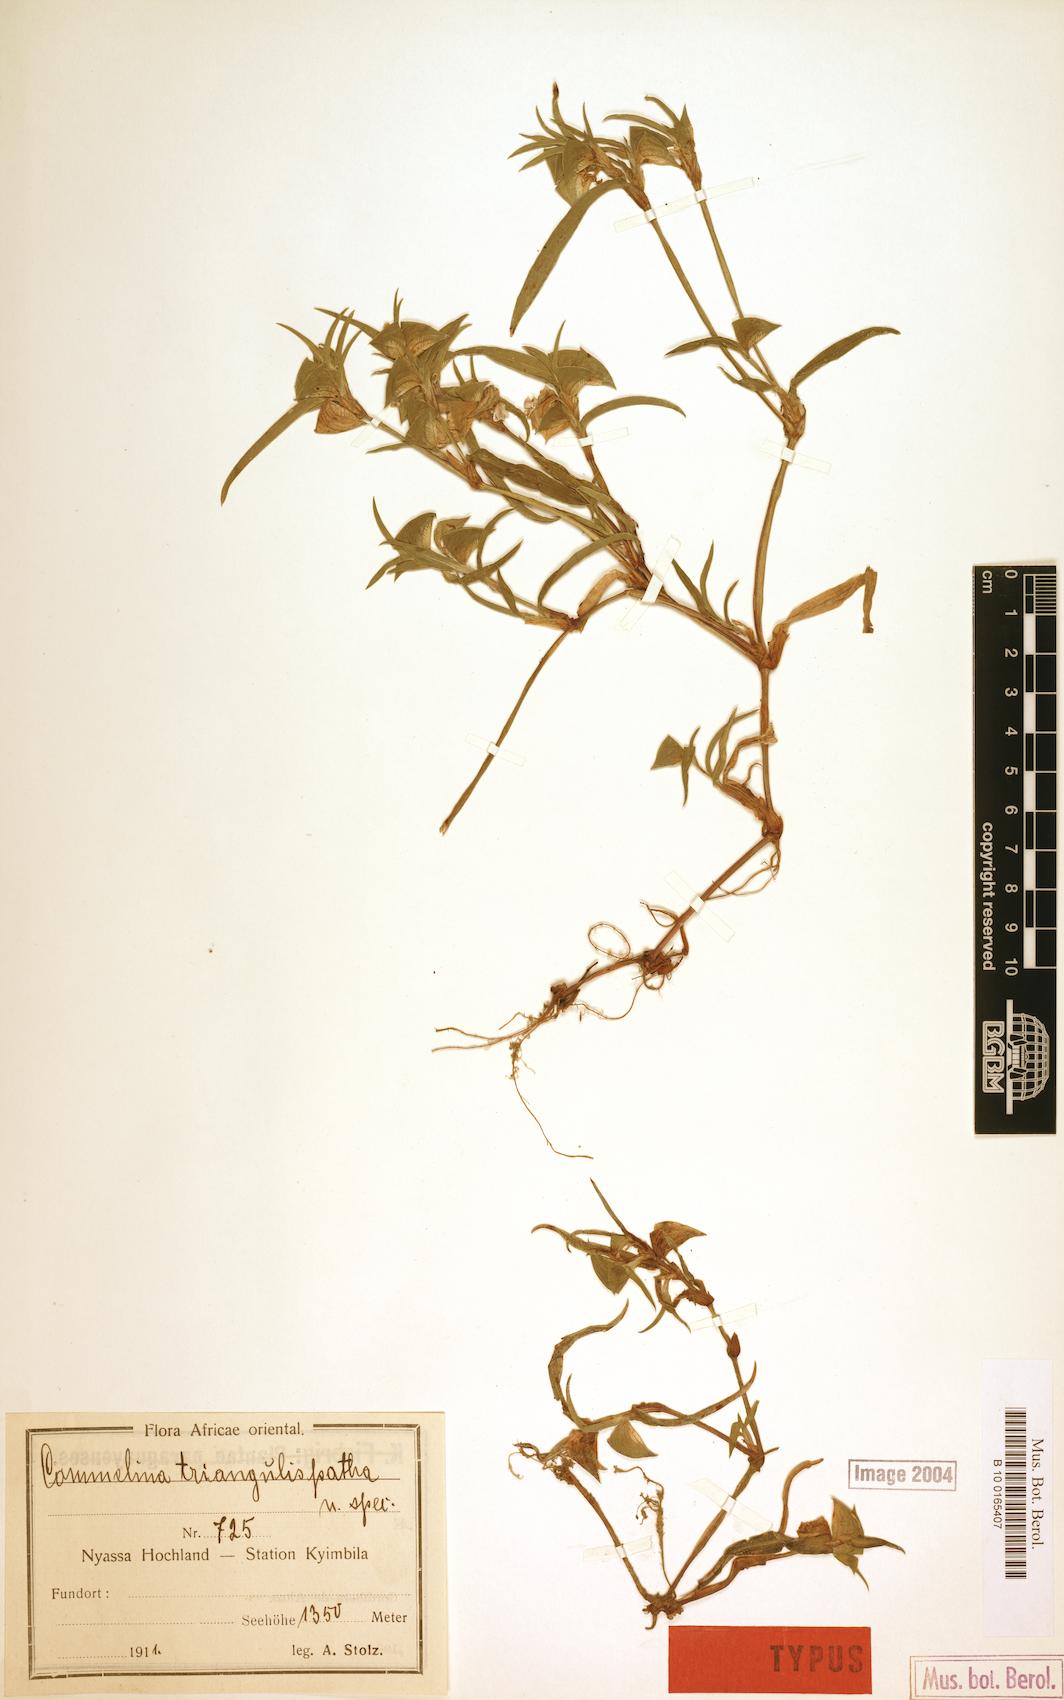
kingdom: Plantae
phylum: Tracheophyta
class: Liliopsida
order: Commelinales
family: Commelinaceae
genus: Commelina
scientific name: Commelina triangulispatha
